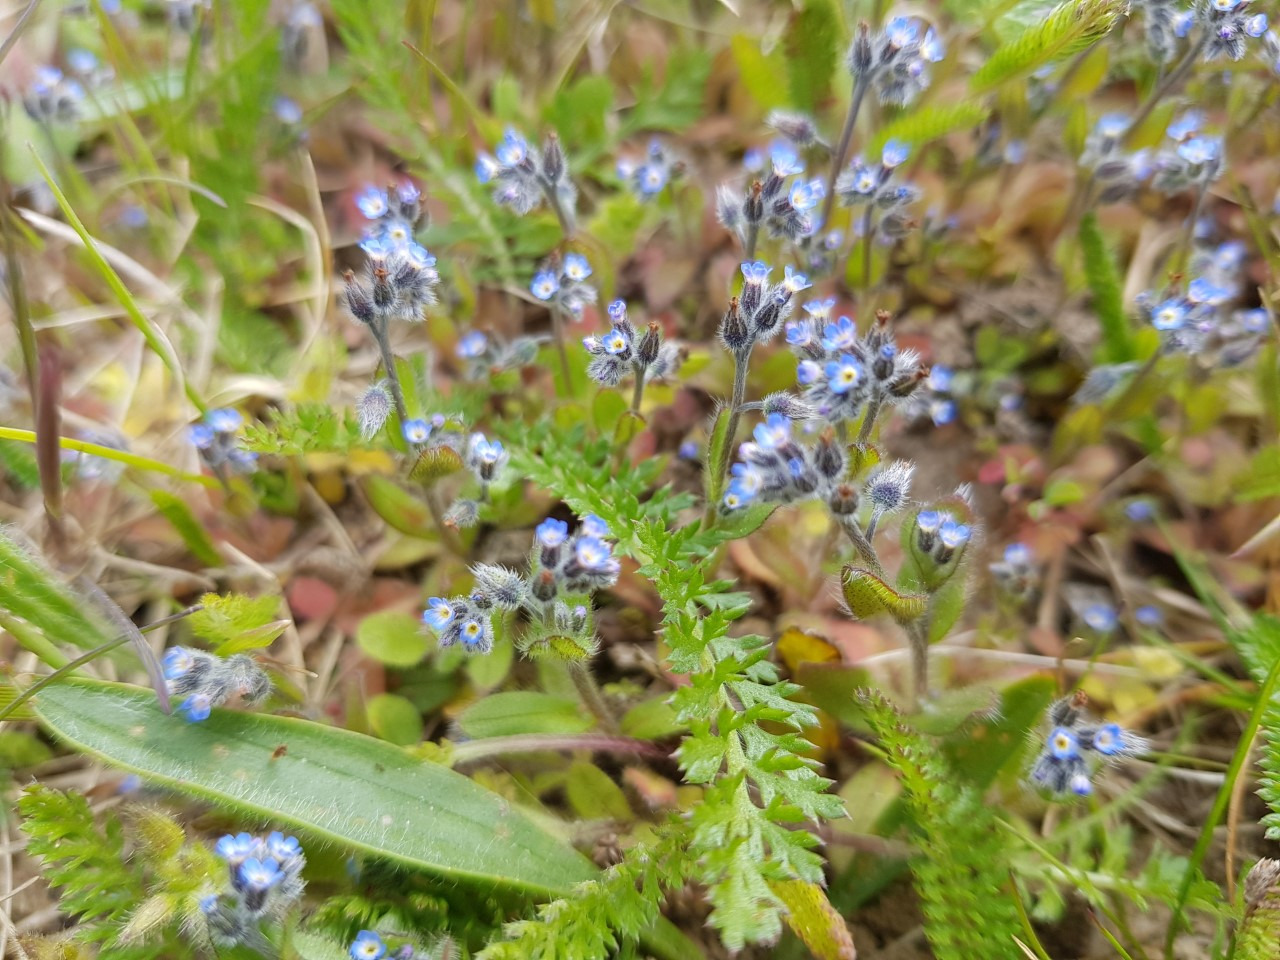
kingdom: Plantae
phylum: Tracheophyta
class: Magnoliopsida
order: Boraginales
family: Boraginaceae
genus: Myosotis
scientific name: Myosotis ramosissima
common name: Bakke-forglemmigej
